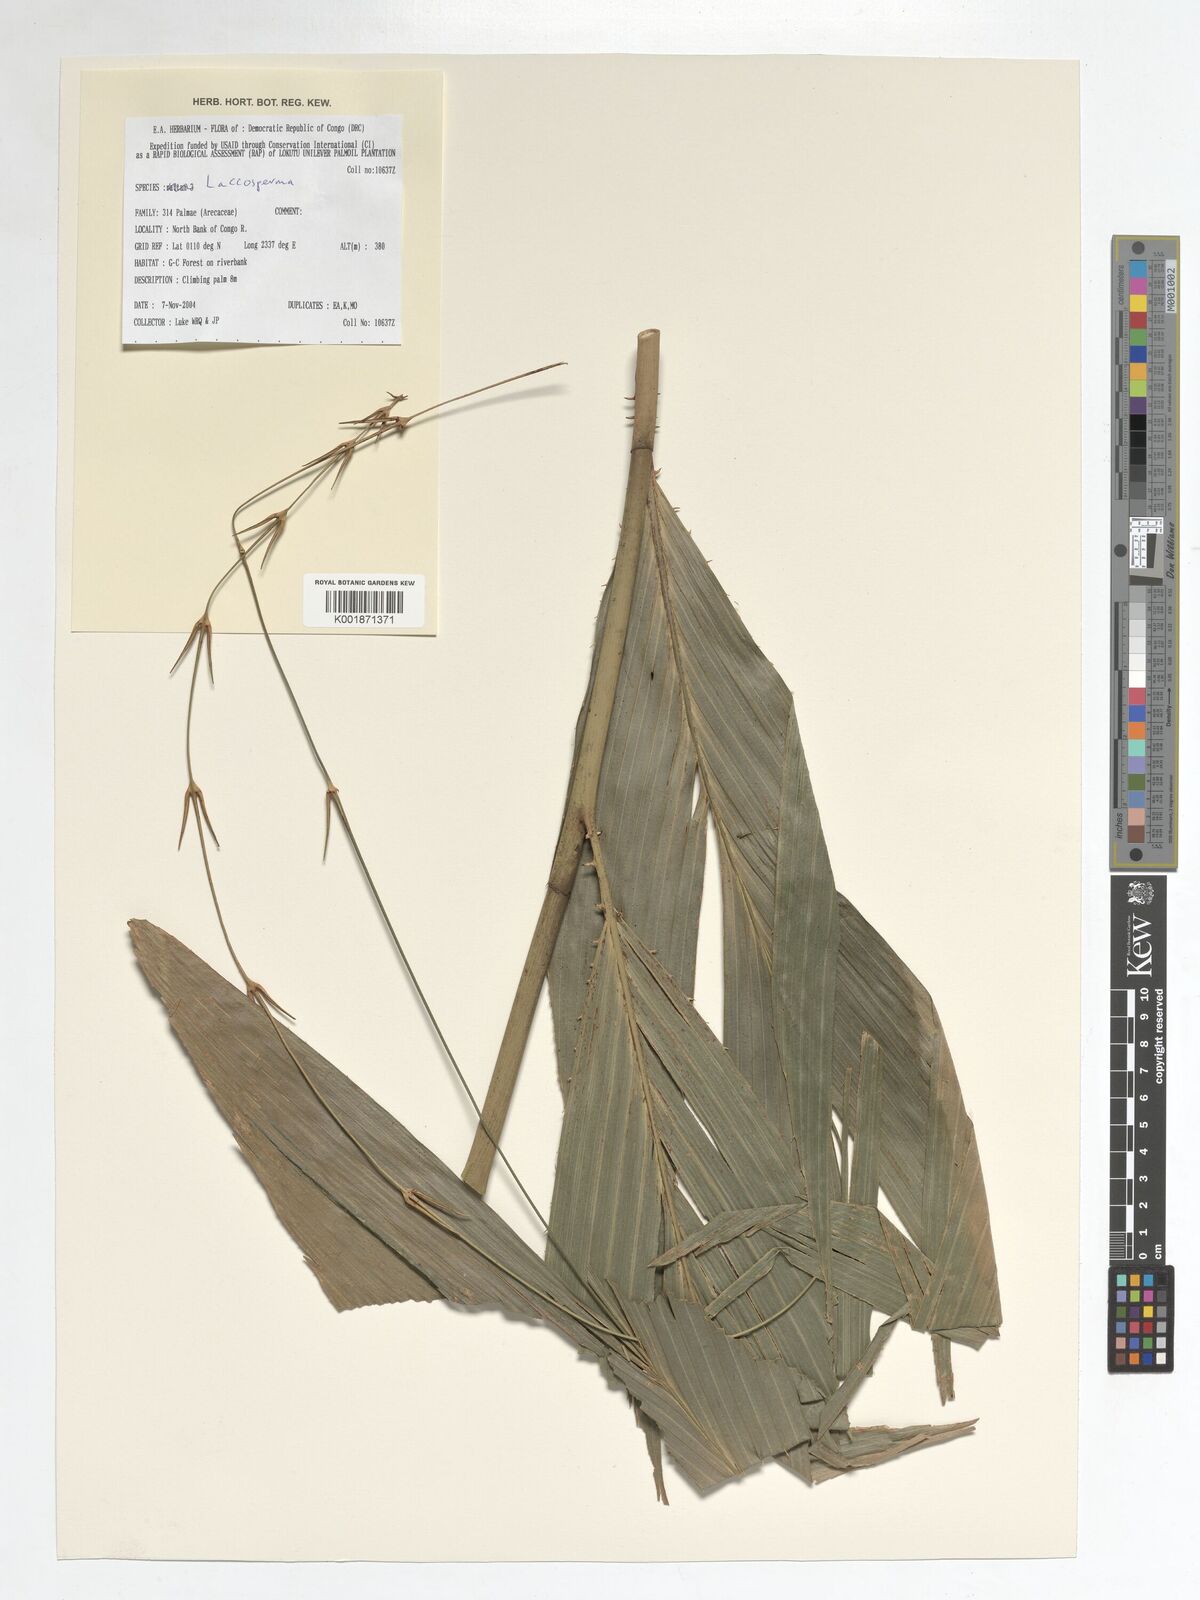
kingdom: Plantae
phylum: Tracheophyta
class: Liliopsida
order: Arecales
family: Arecaceae
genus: Laccosperma
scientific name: Laccosperma
